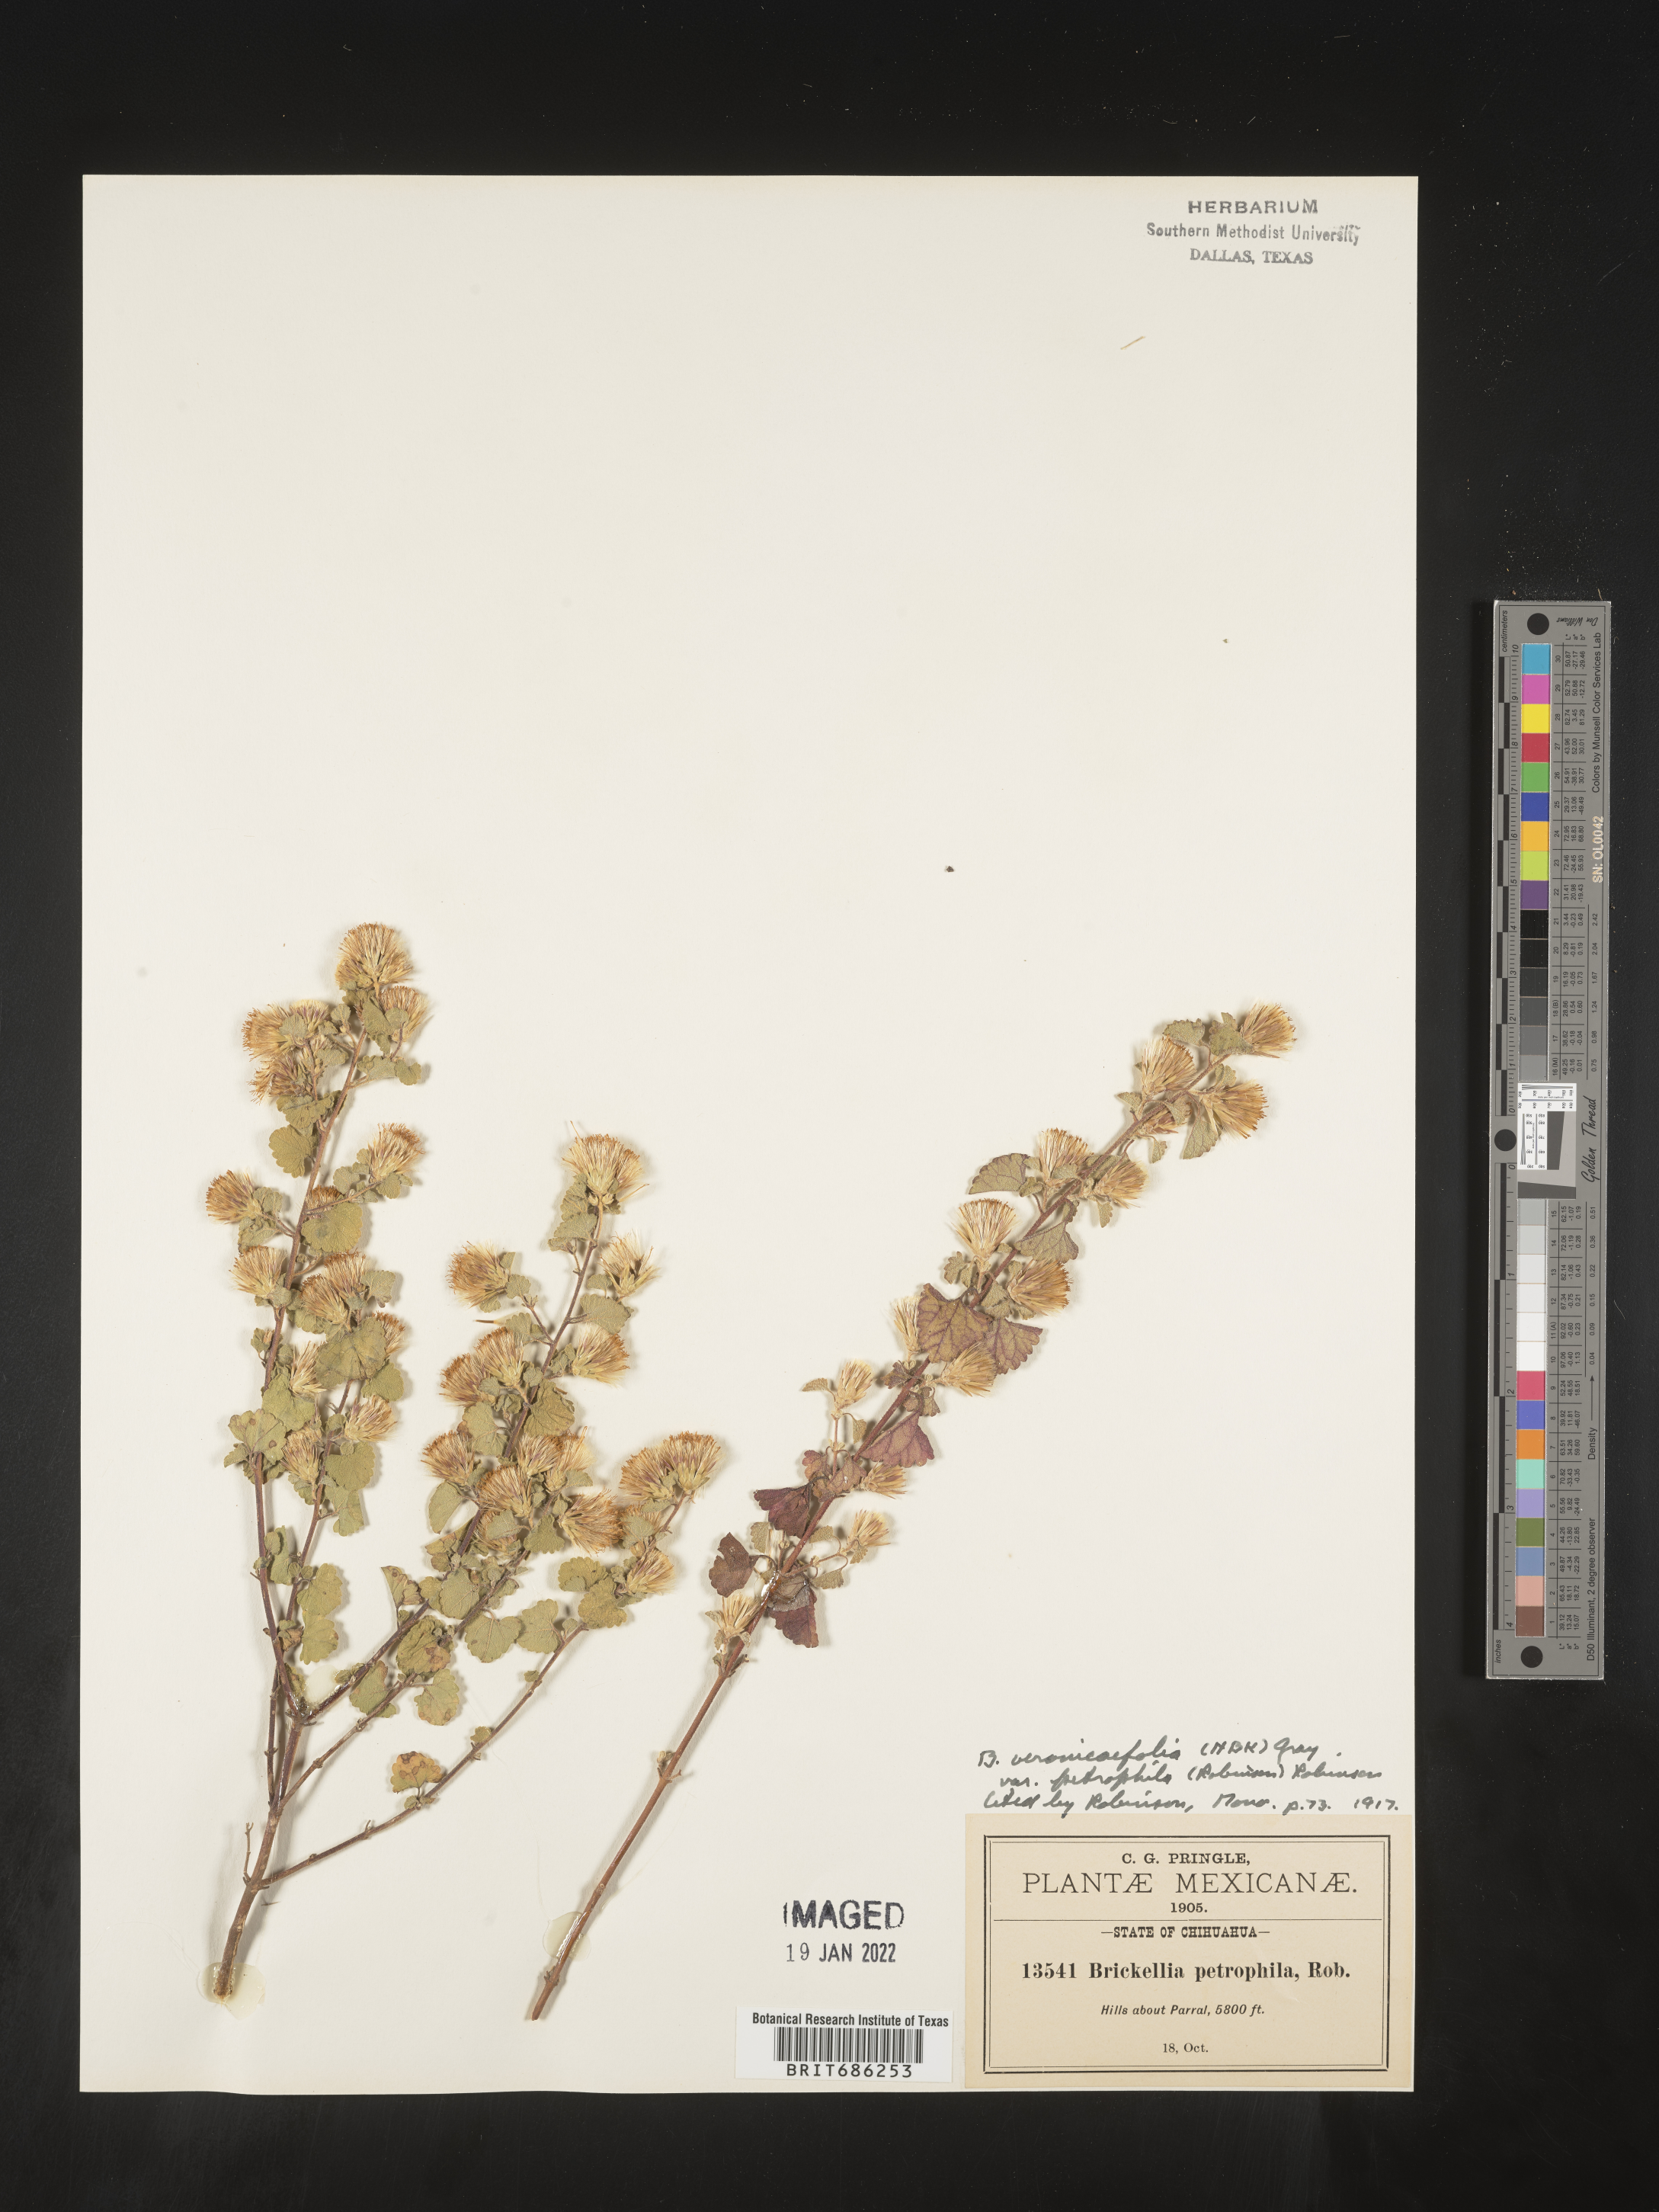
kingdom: Plantae
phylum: Tracheophyta
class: Magnoliopsida
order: Asterales
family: Asteraceae
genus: Brickellia
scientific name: Brickellia veronicifolia
